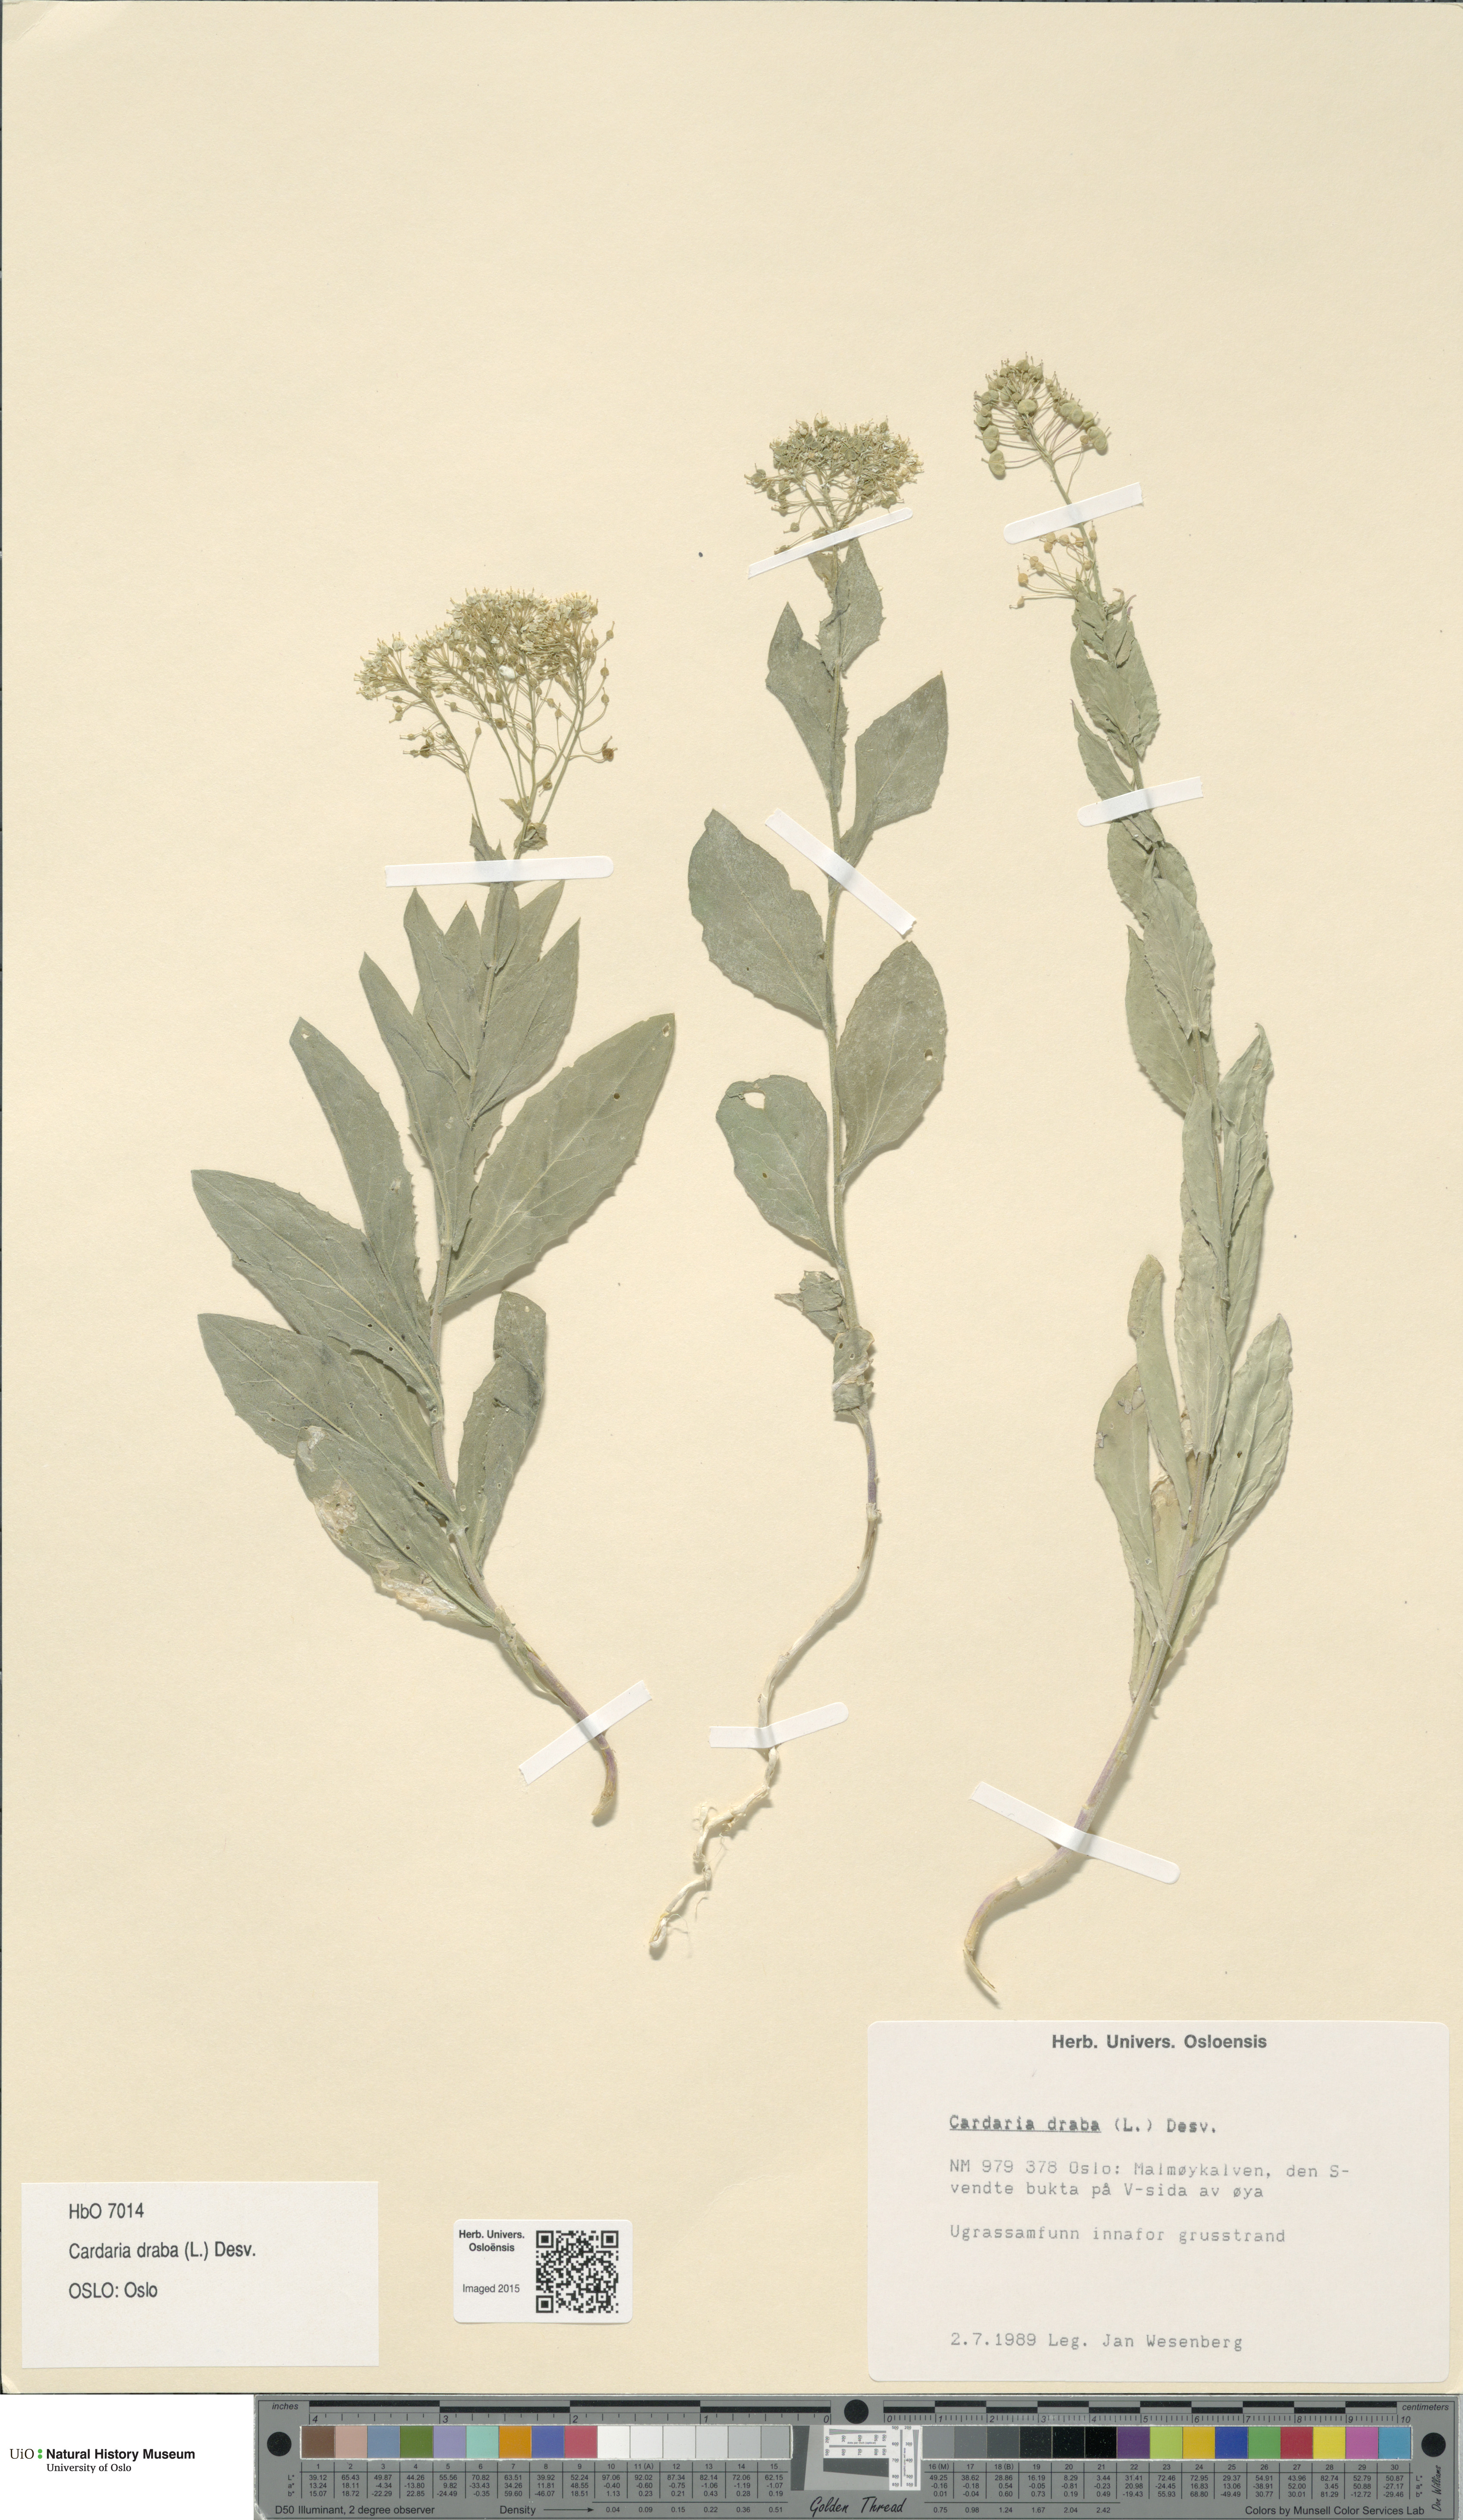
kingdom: Plantae
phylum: Tracheophyta
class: Magnoliopsida
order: Brassicales
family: Brassicaceae
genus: Lepidium
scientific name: Lepidium draba
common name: Hoary cress
